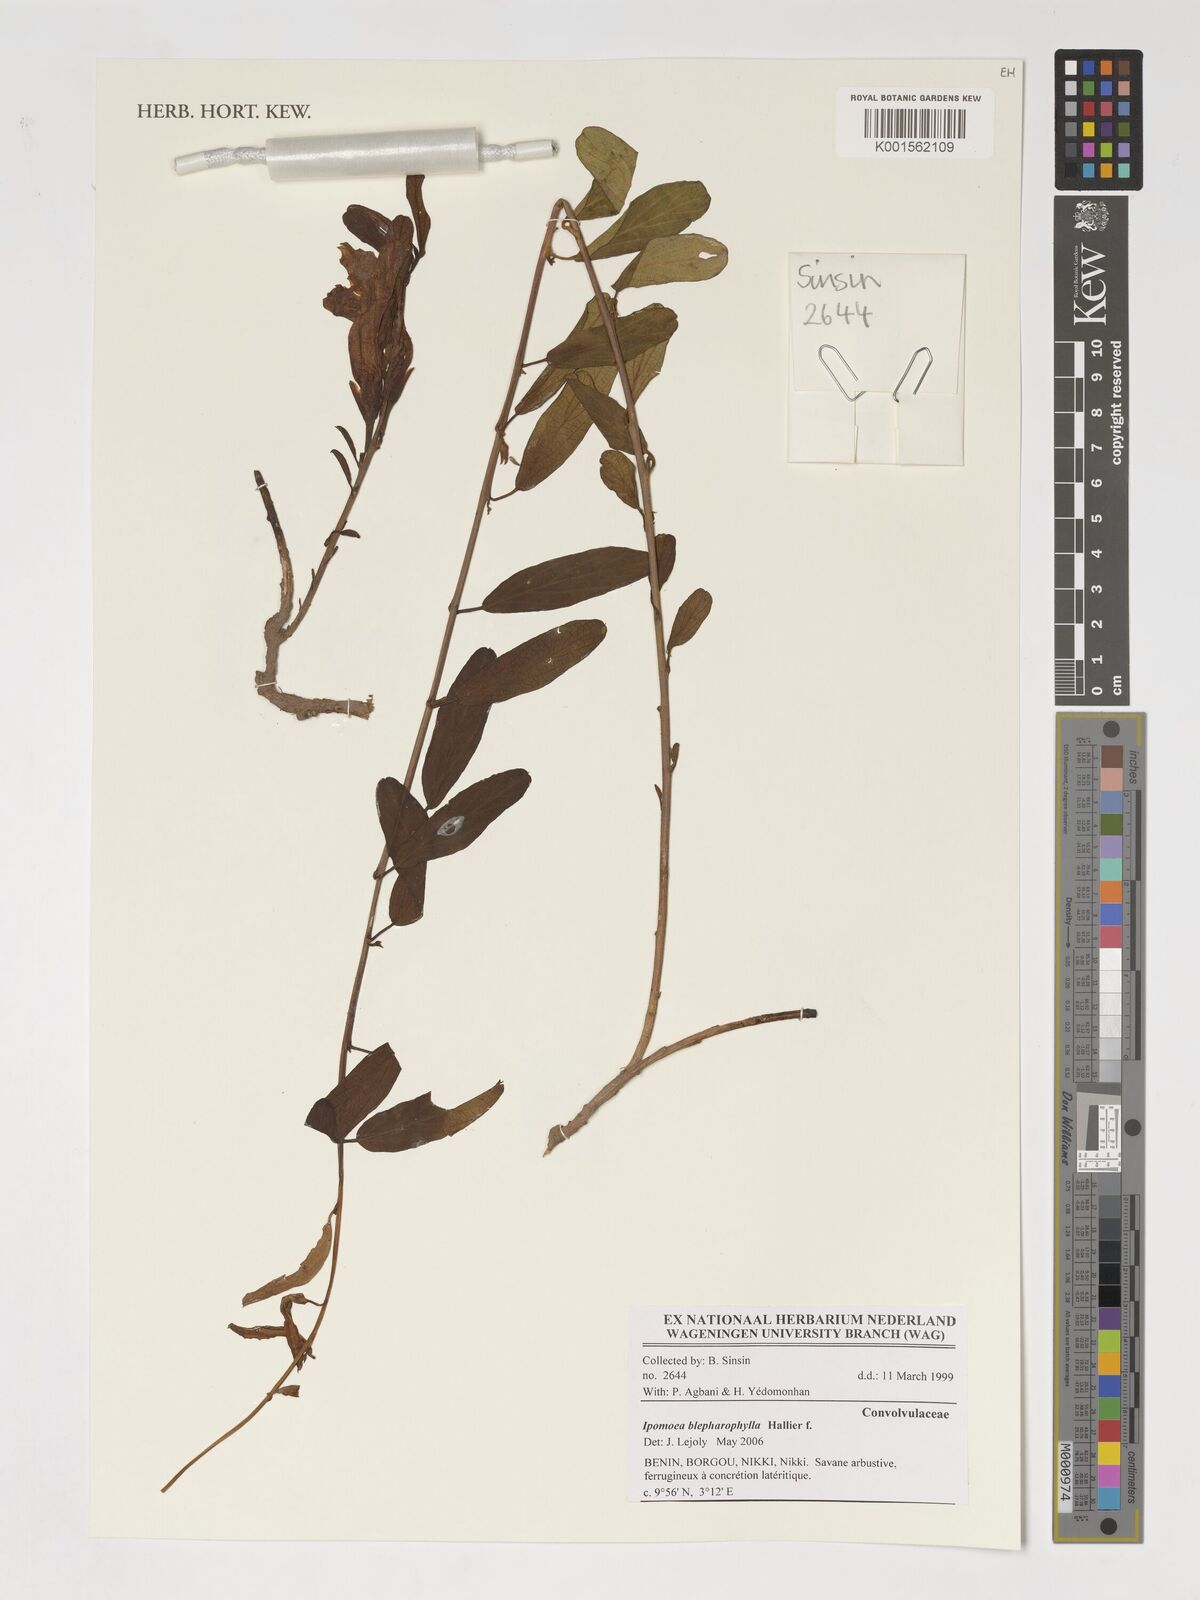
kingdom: Plantae
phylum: Tracheophyta
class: Magnoliopsida
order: Solanales
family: Convolvulaceae
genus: Ipomoea
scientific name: Ipomoea blepharophylla
